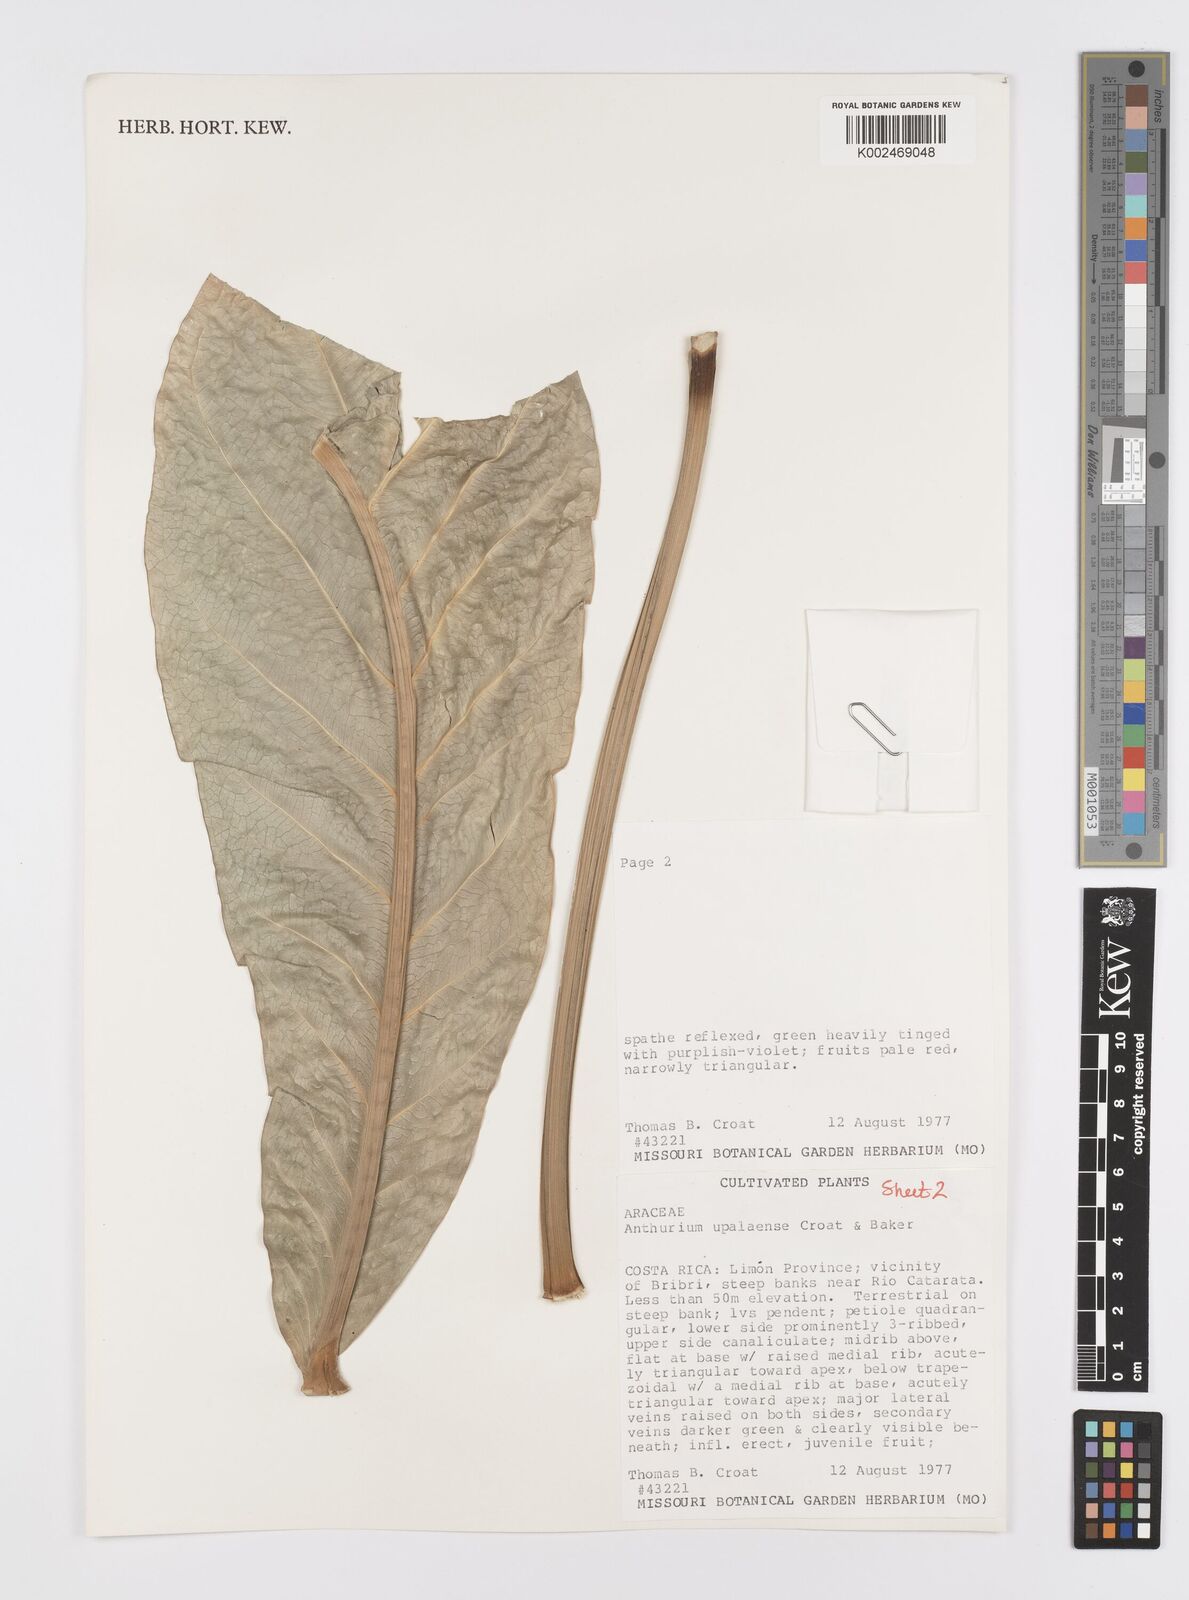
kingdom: Plantae
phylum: Tracheophyta
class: Liliopsida
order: Alismatales
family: Araceae
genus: Anthurium
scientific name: Anthurium upalaense
